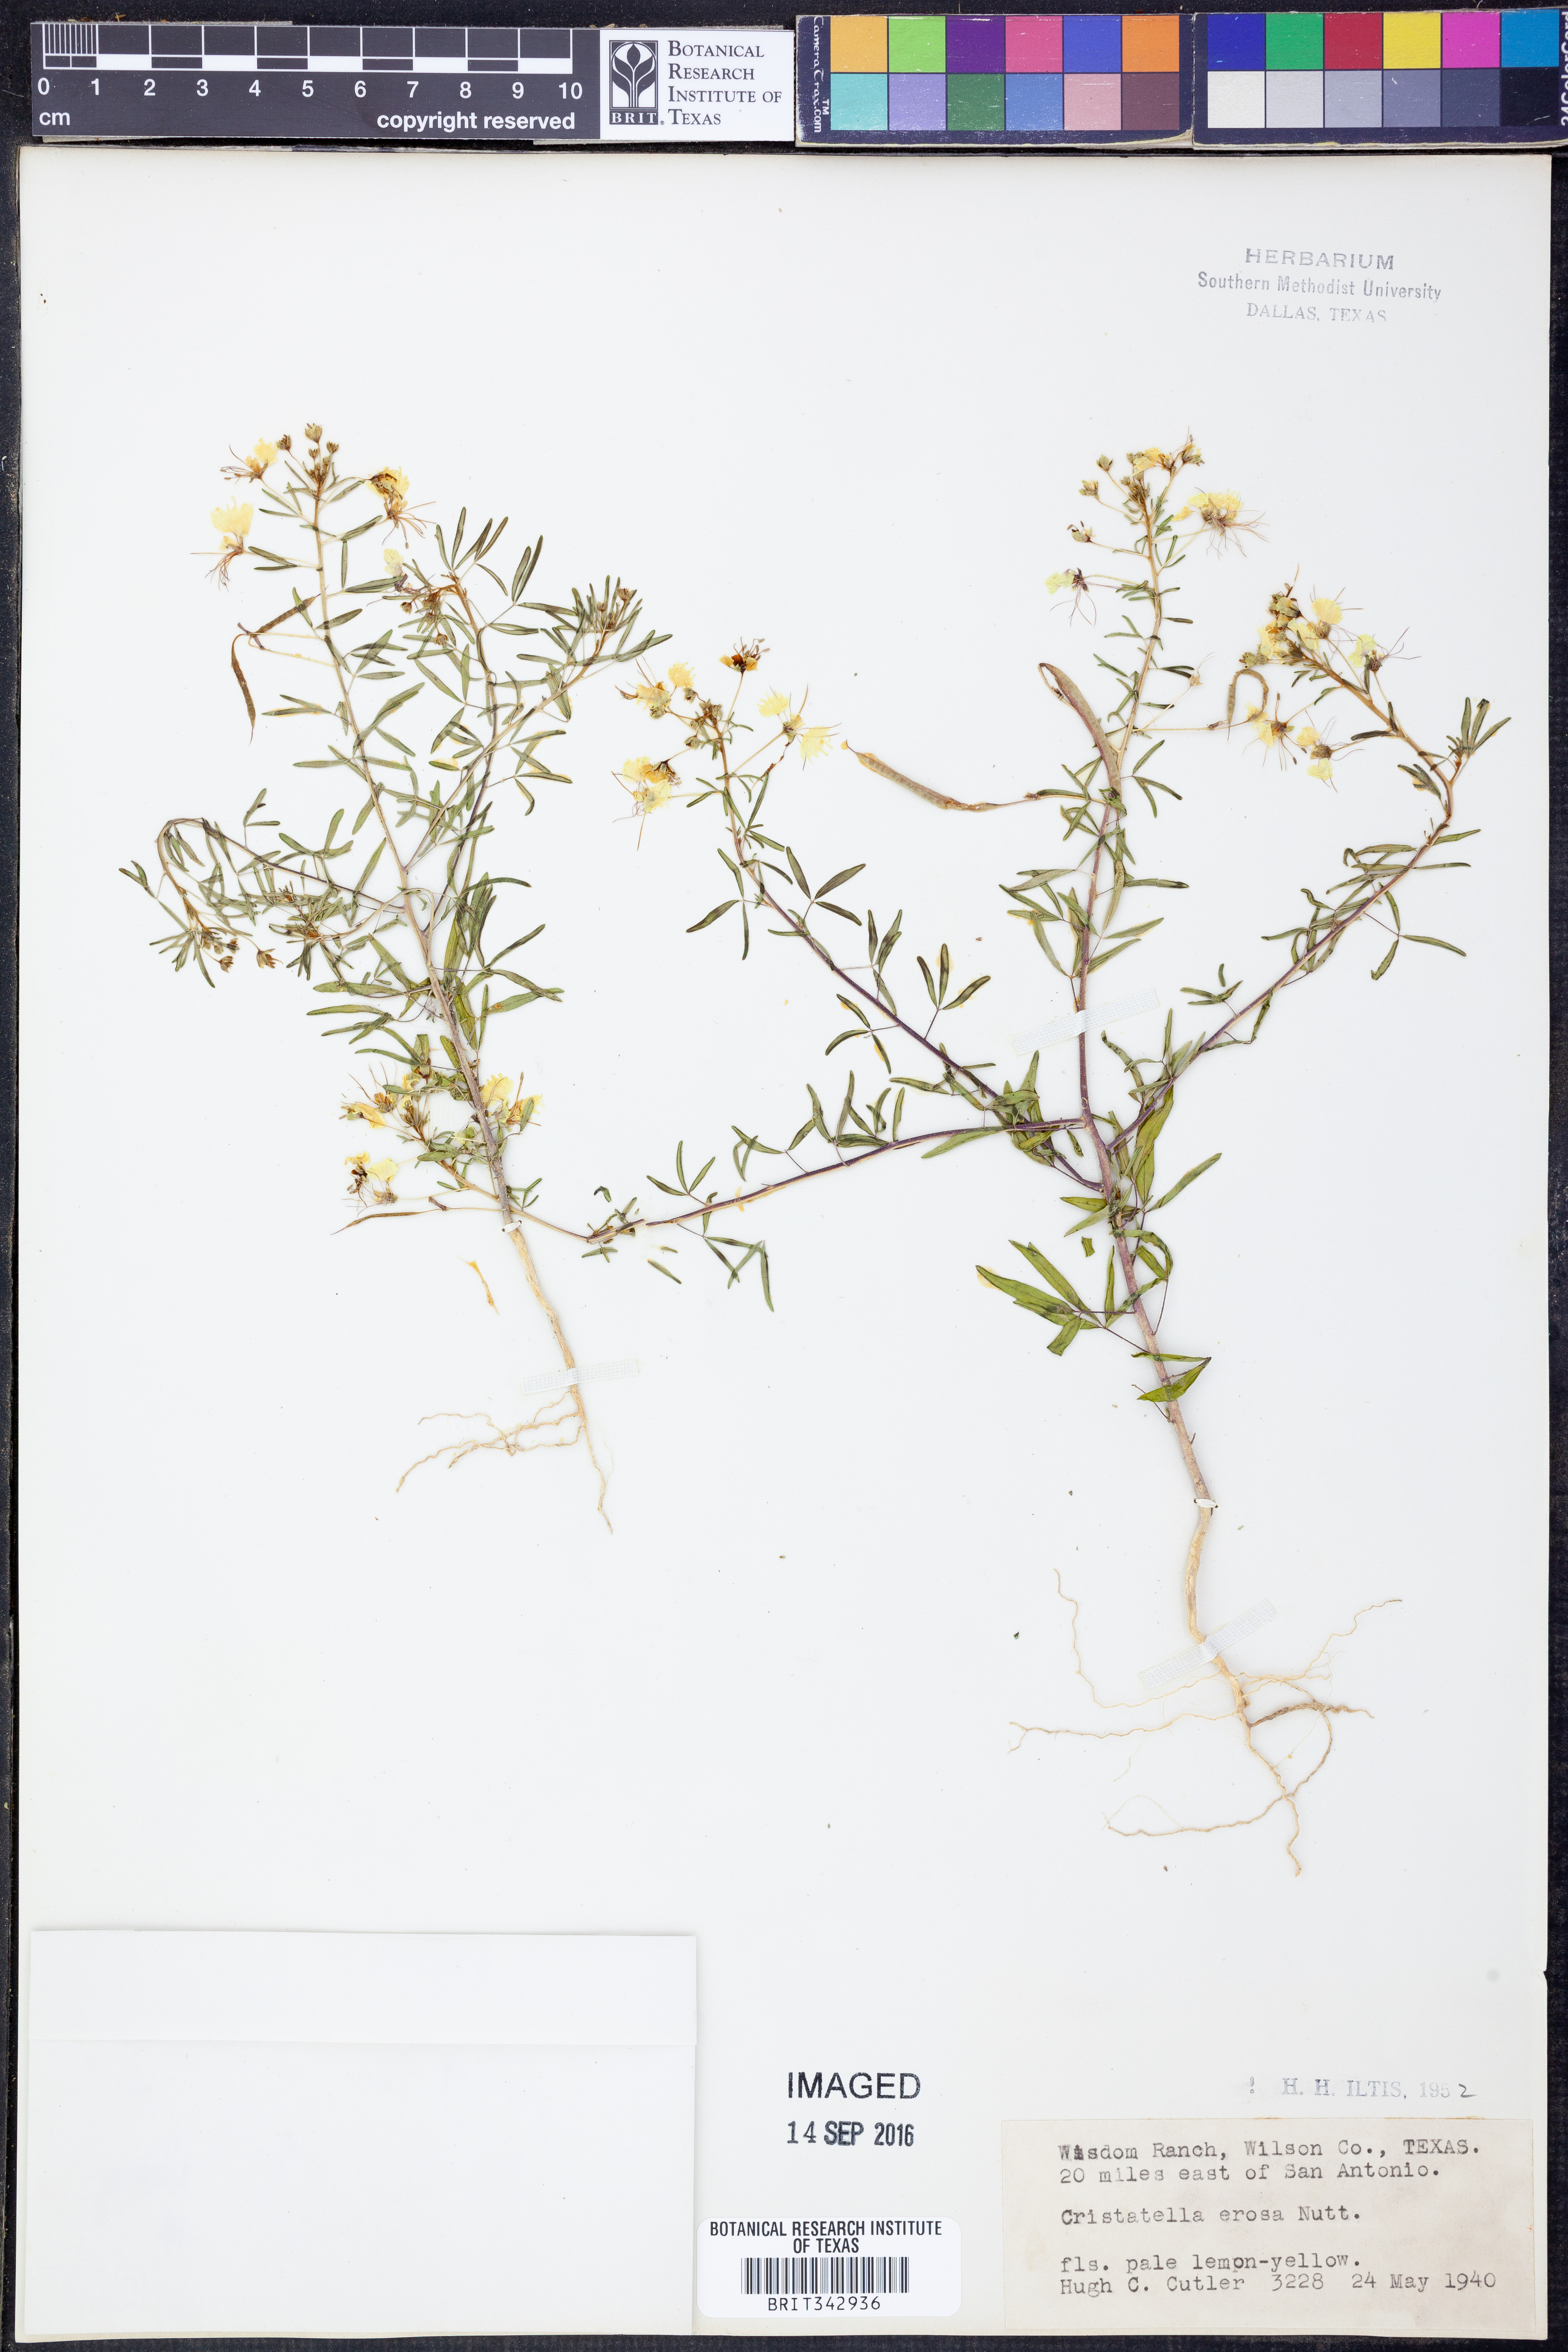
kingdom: Plantae
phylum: Tracheophyta
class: Magnoliopsida
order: Brassicales
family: Cleomaceae
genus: Polanisia
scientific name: Polanisia erosa
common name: Large clammyweed
